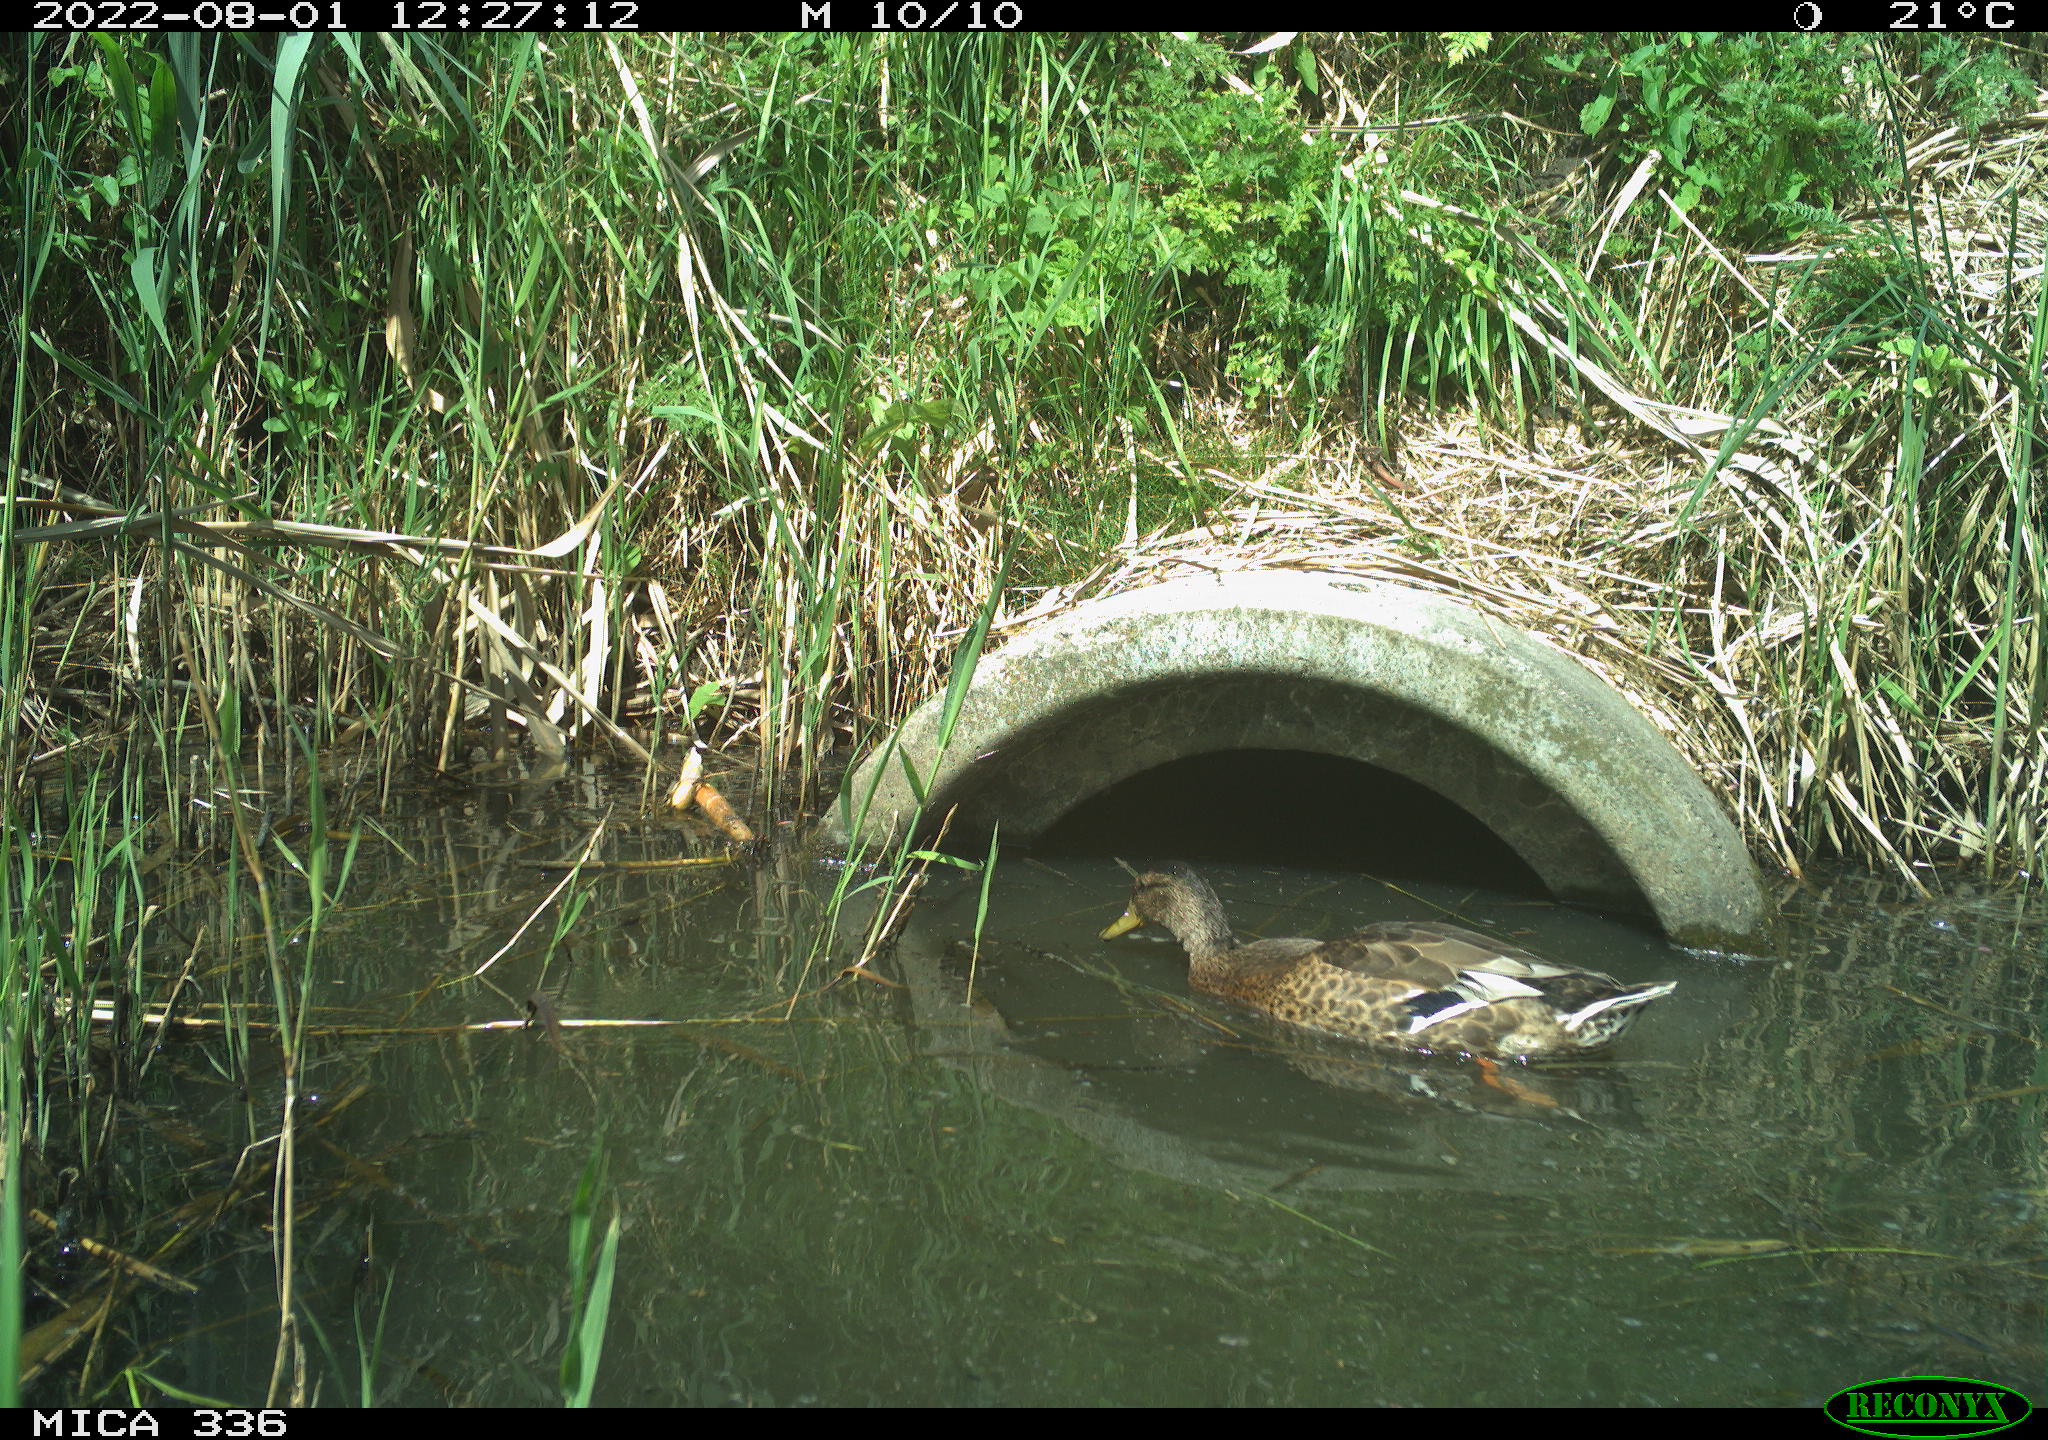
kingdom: Animalia
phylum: Chordata
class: Aves
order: Anseriformes
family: Anatidae
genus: Anas
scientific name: Anas platyrhynchos
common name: Mallard
